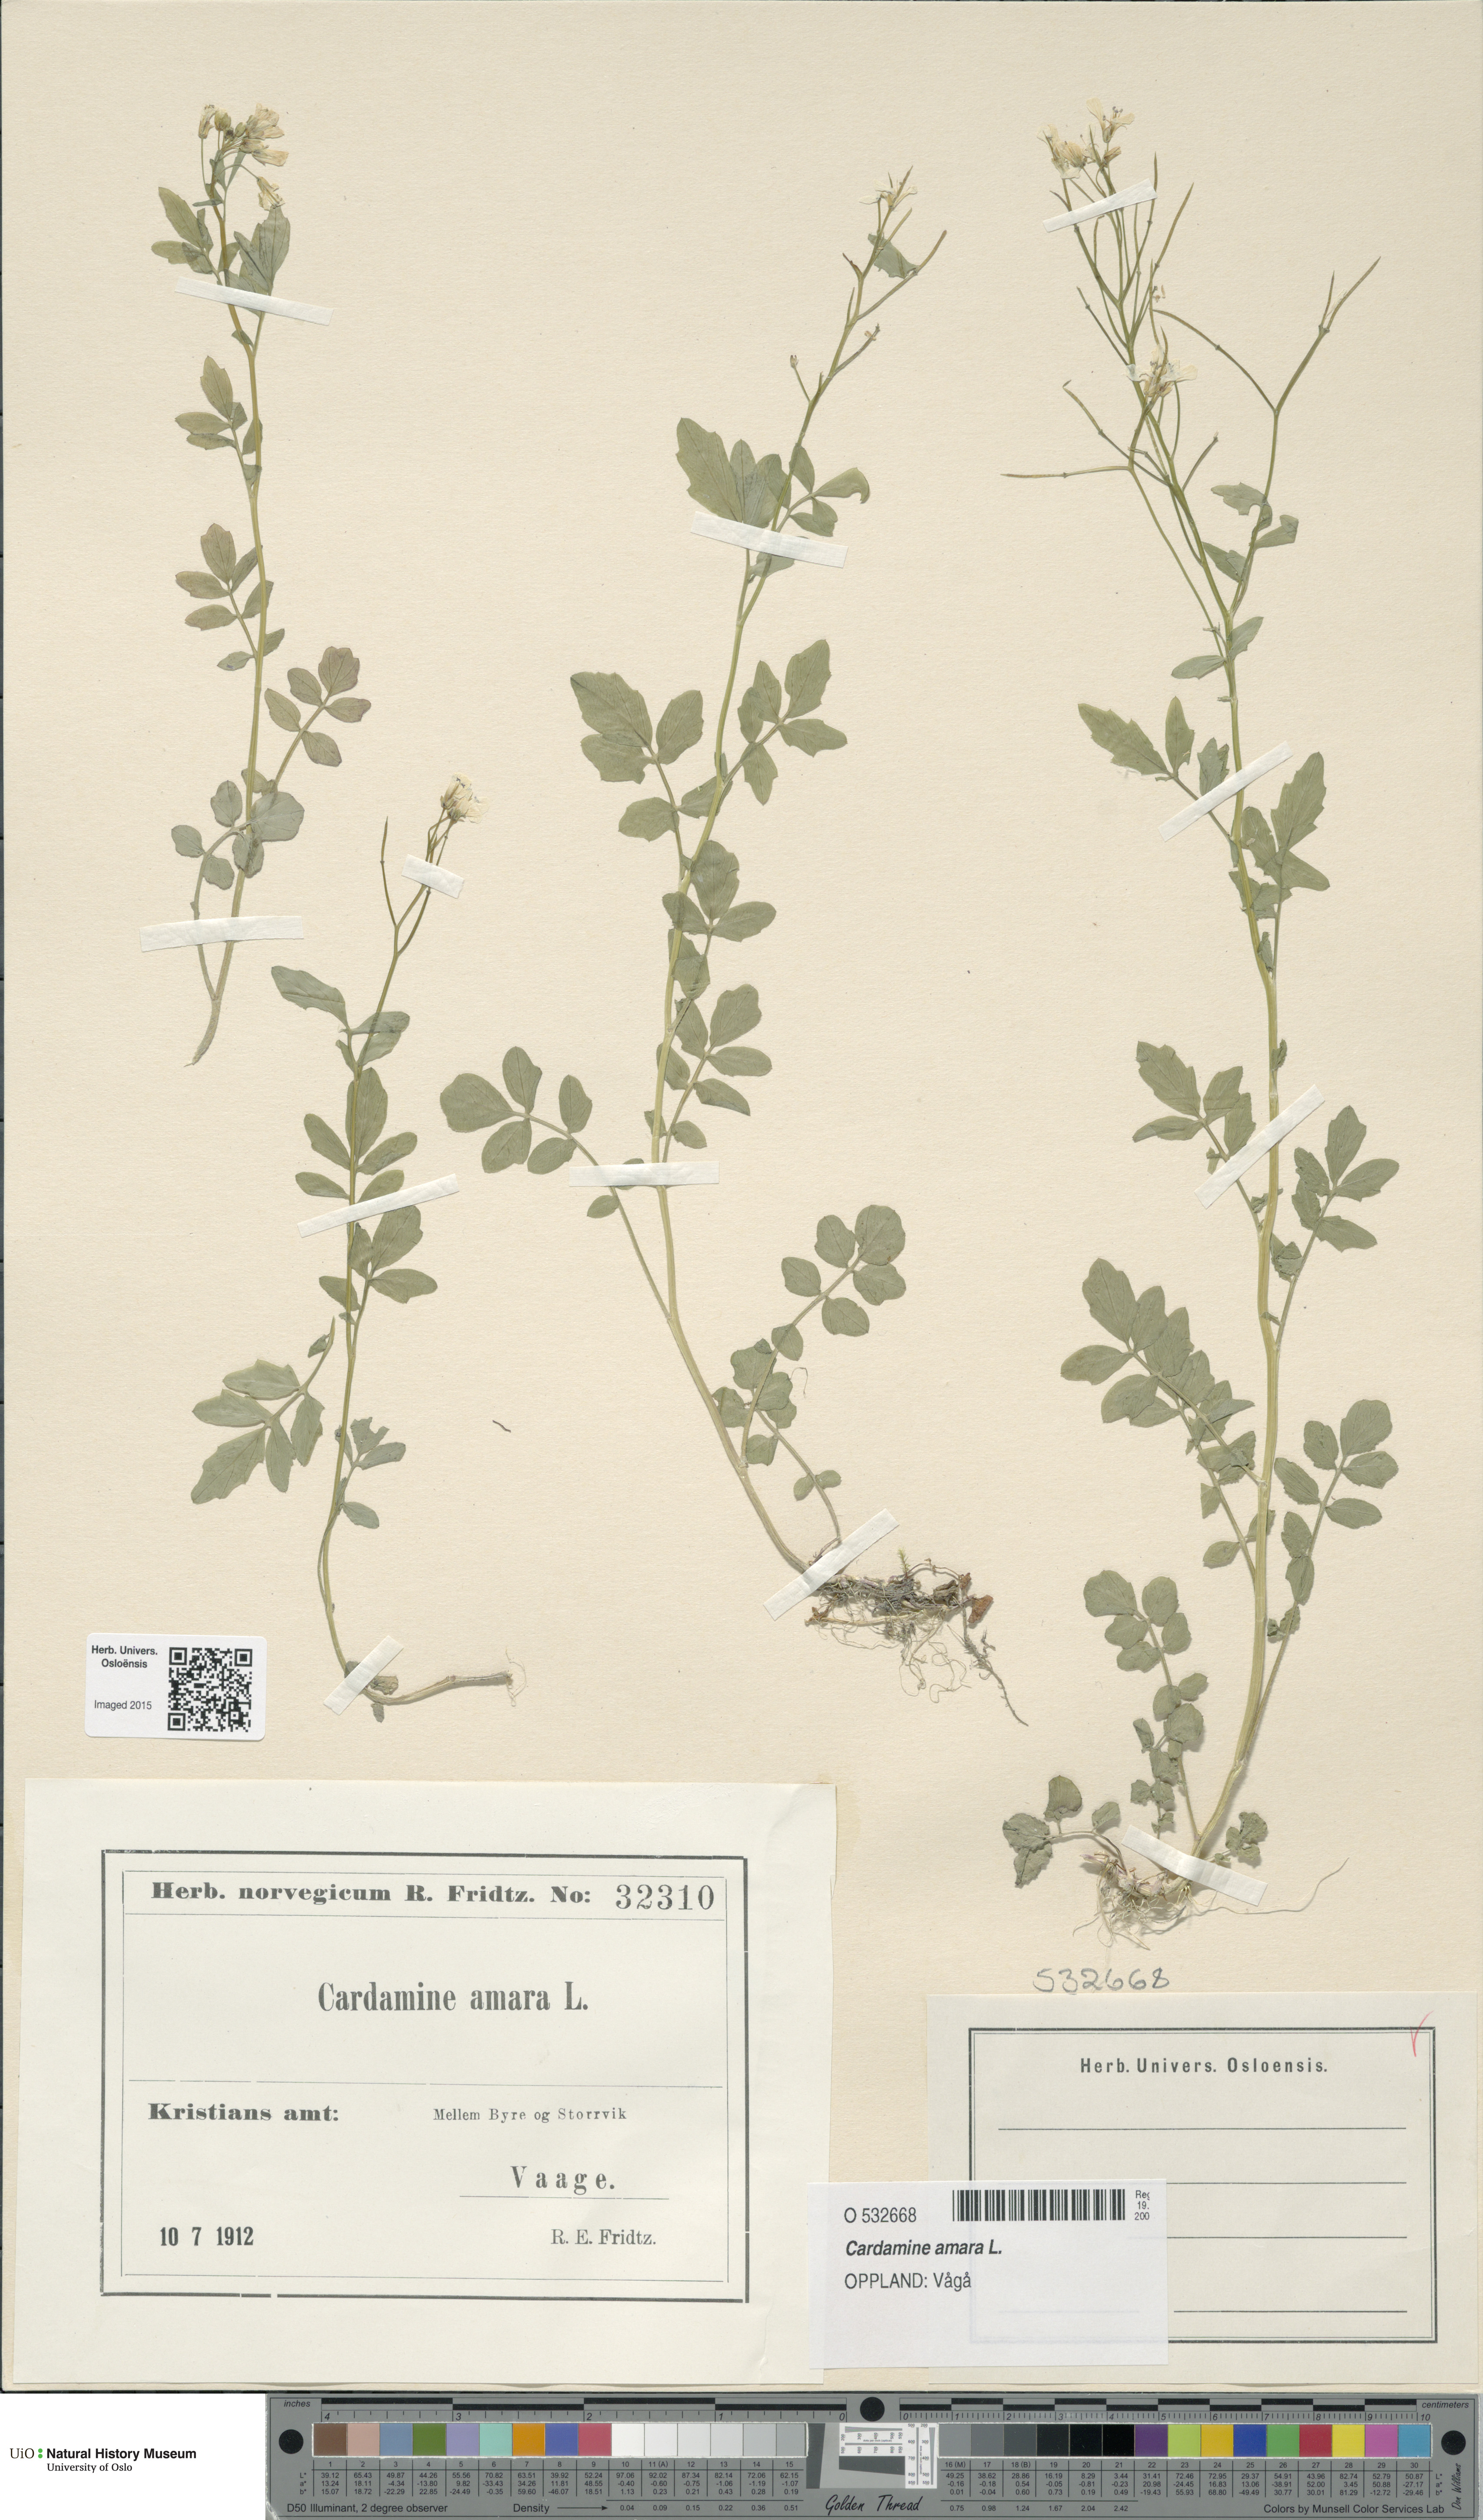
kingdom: Plantae
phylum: Tracheophyta
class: Magnoliopsida
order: Brassicales
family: Brassicaceae
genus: Cardamine
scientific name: Cardamine amara
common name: Large bitter-cress
